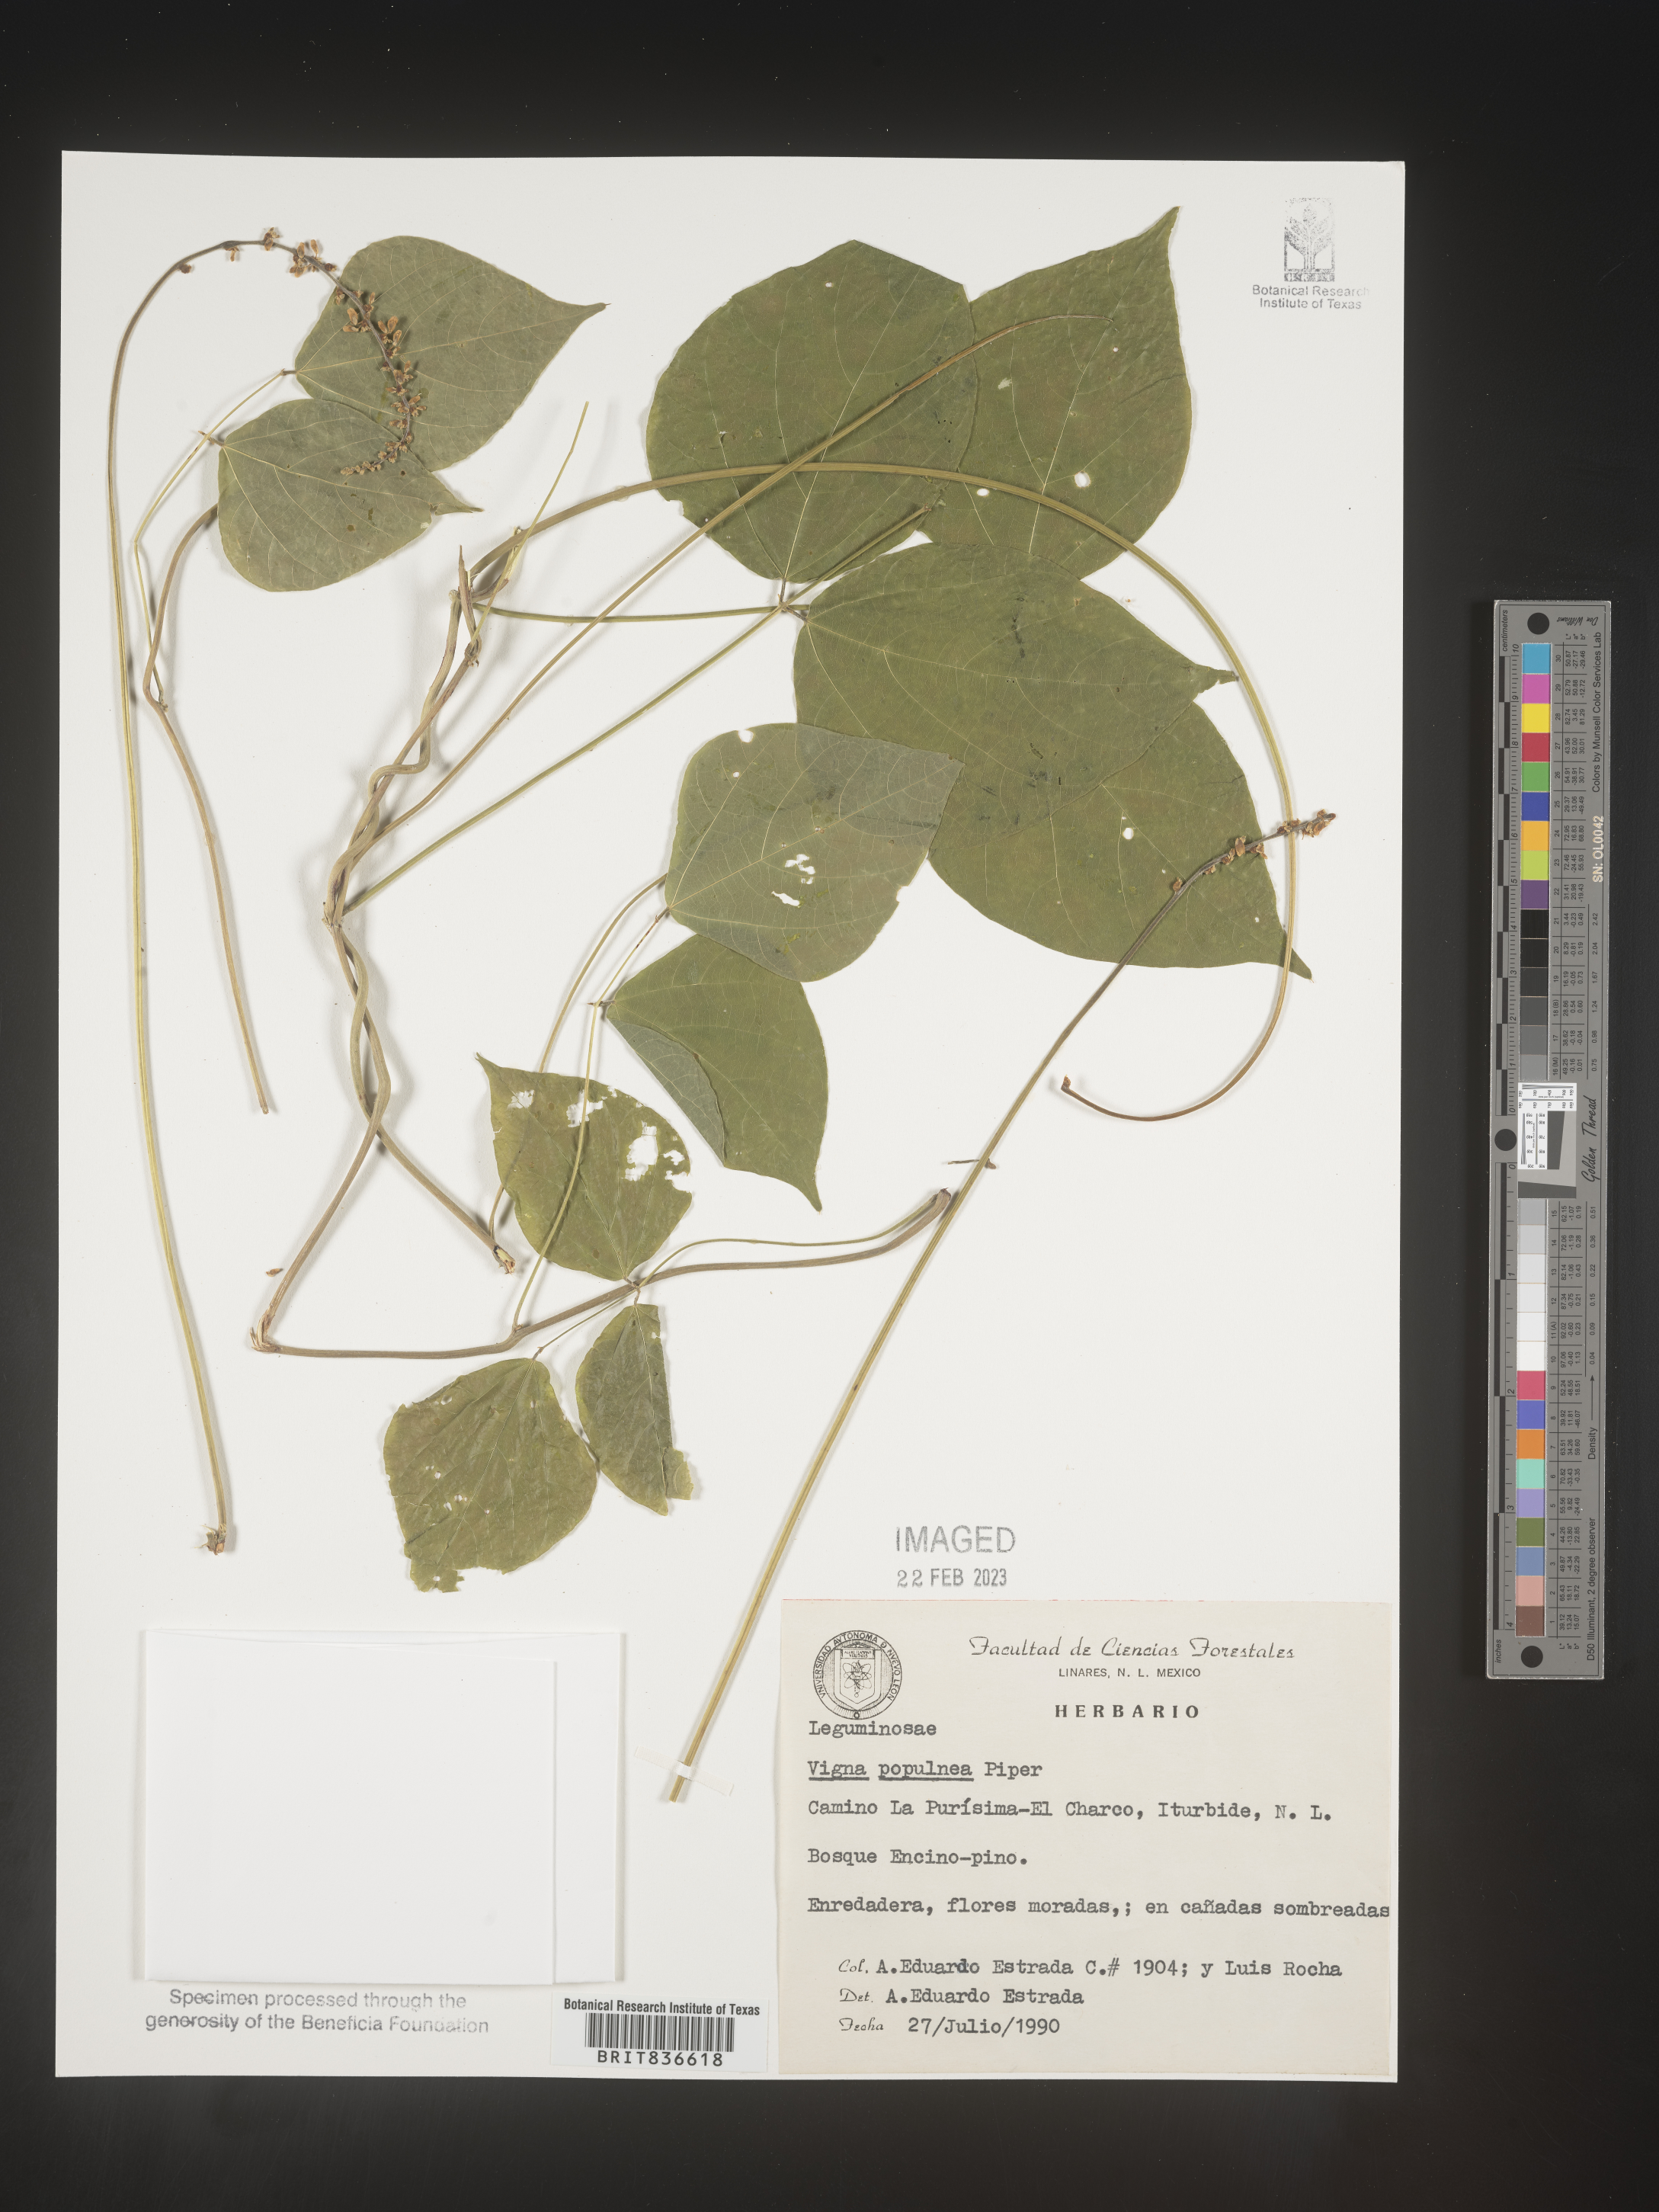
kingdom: Plantae
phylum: Tracheophyta
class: Magnoliopsida
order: Fabales
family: Fabaceae
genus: Vigna
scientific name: Vigna
